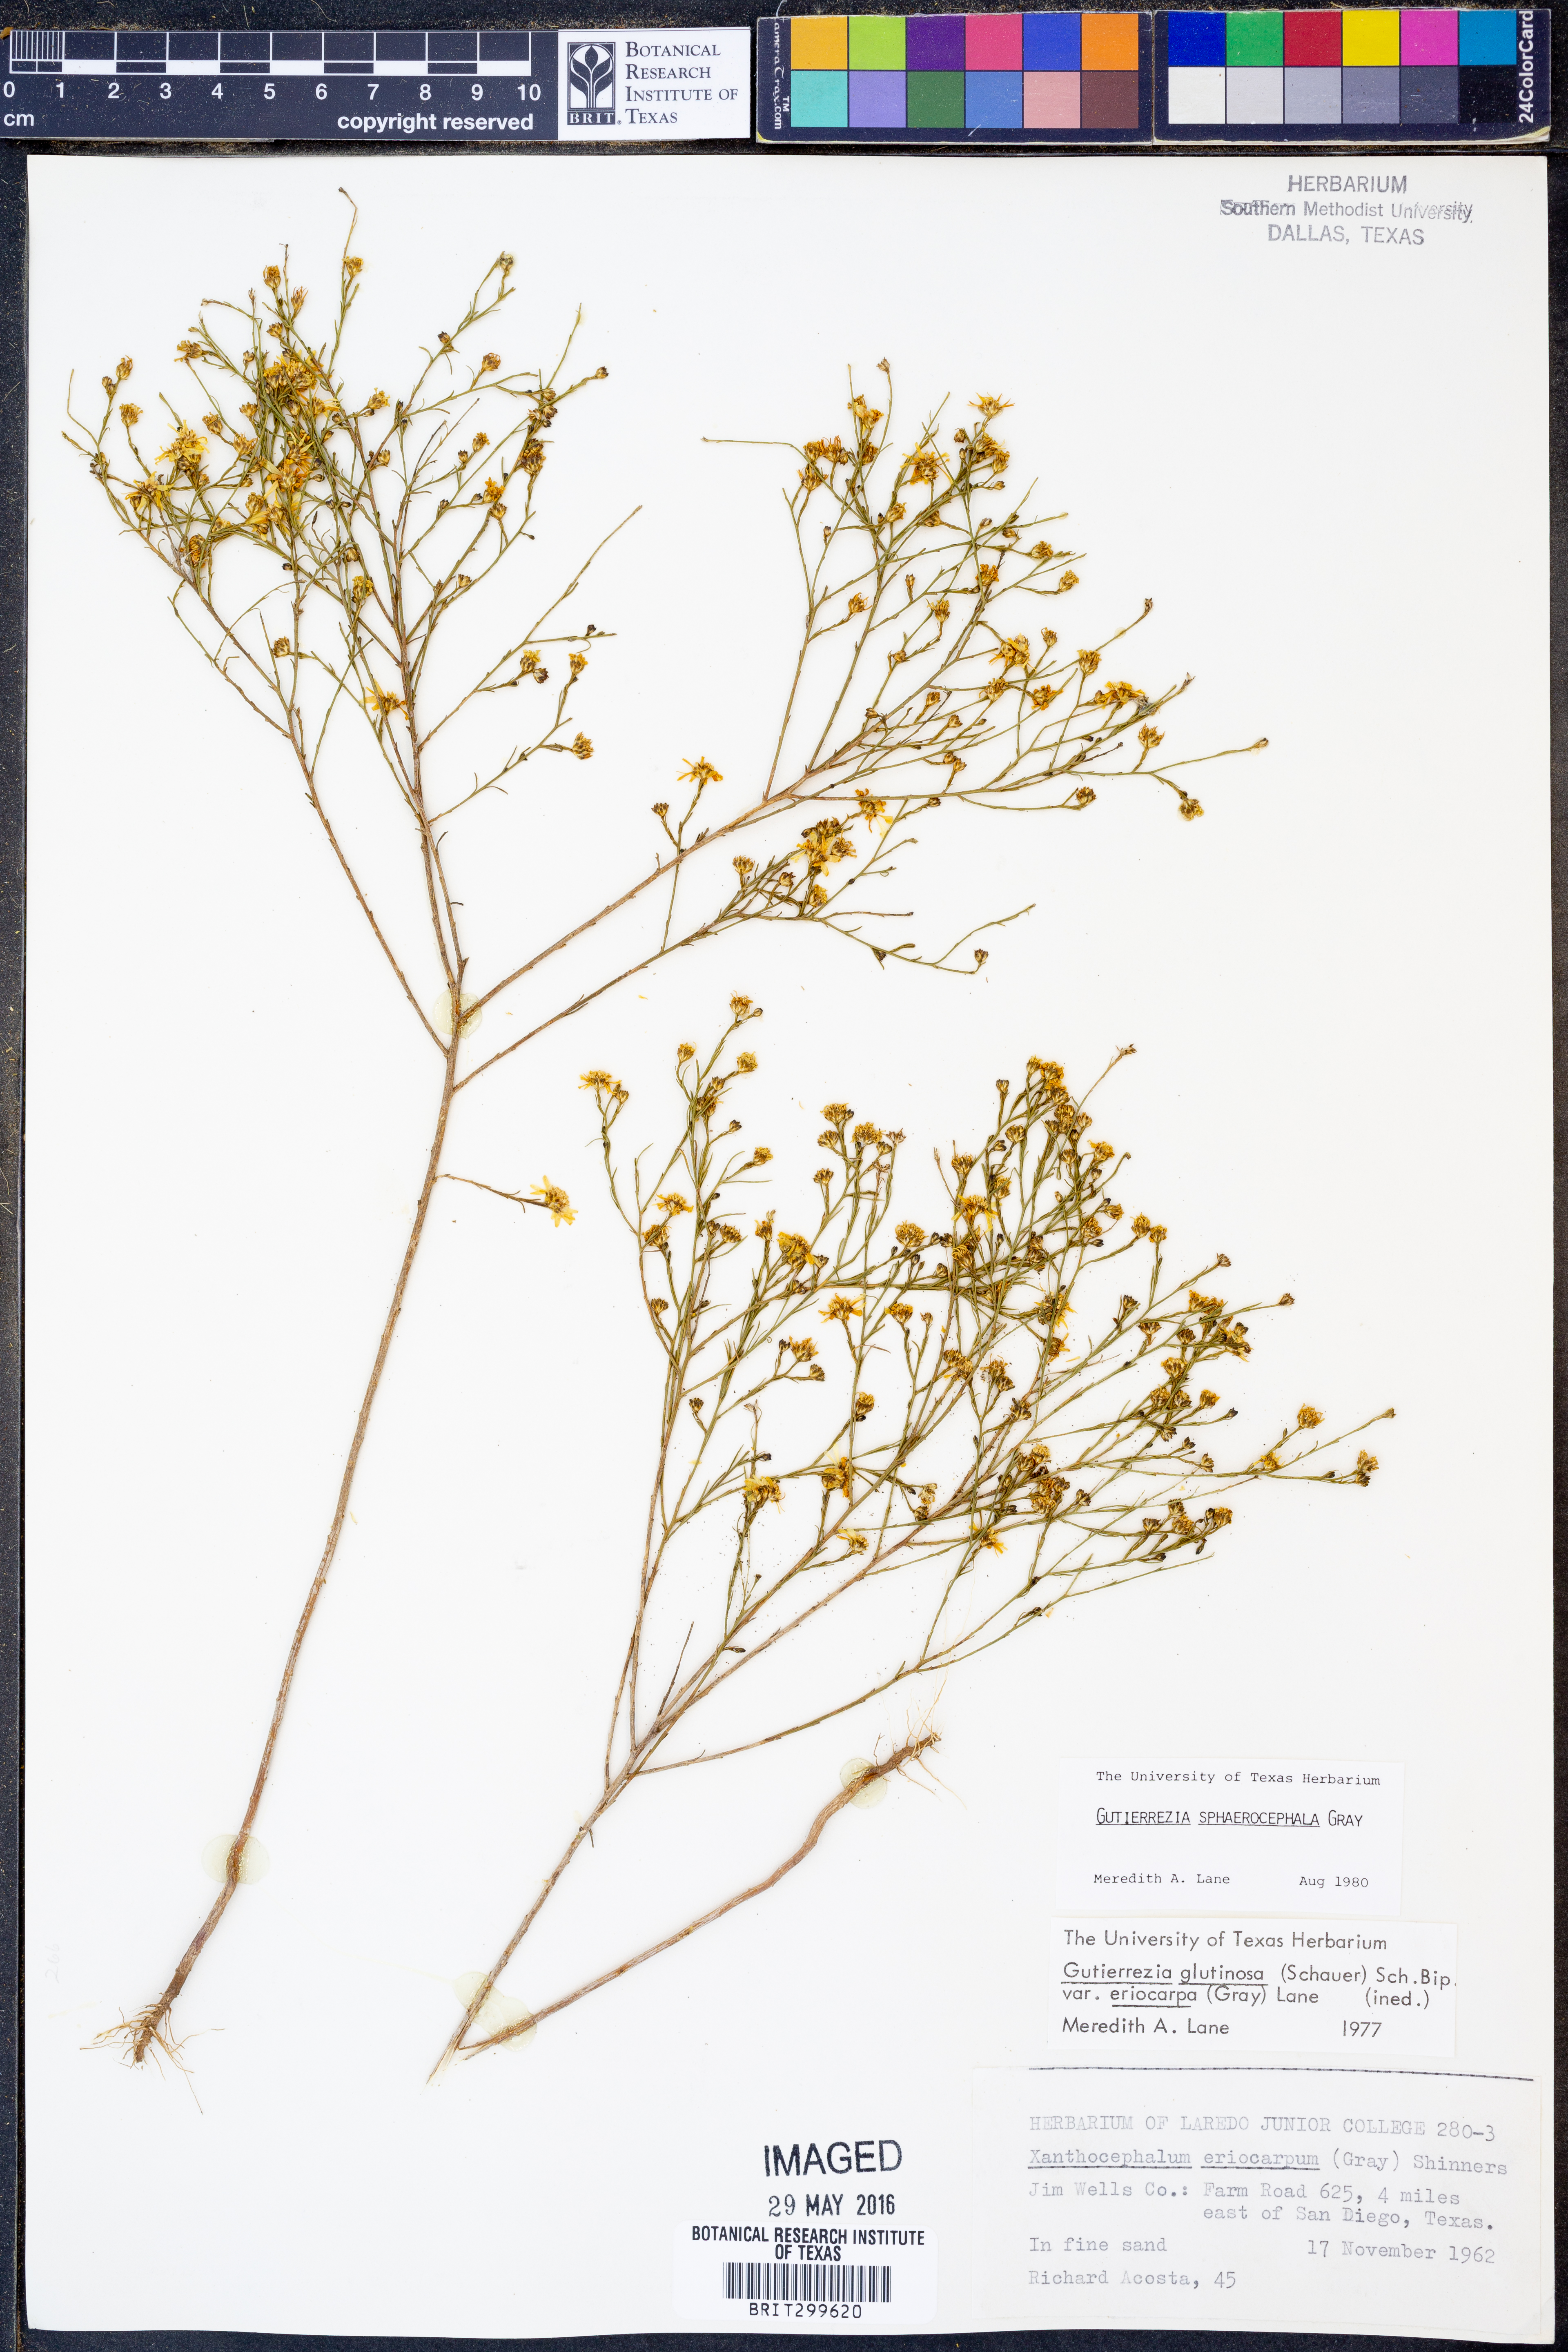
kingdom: Plantae
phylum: Tracheophyta
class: Magnoliopsida
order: Asterales
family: Asteraceae
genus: Gutierrezia
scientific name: Gutierrezia sphaerocephala
